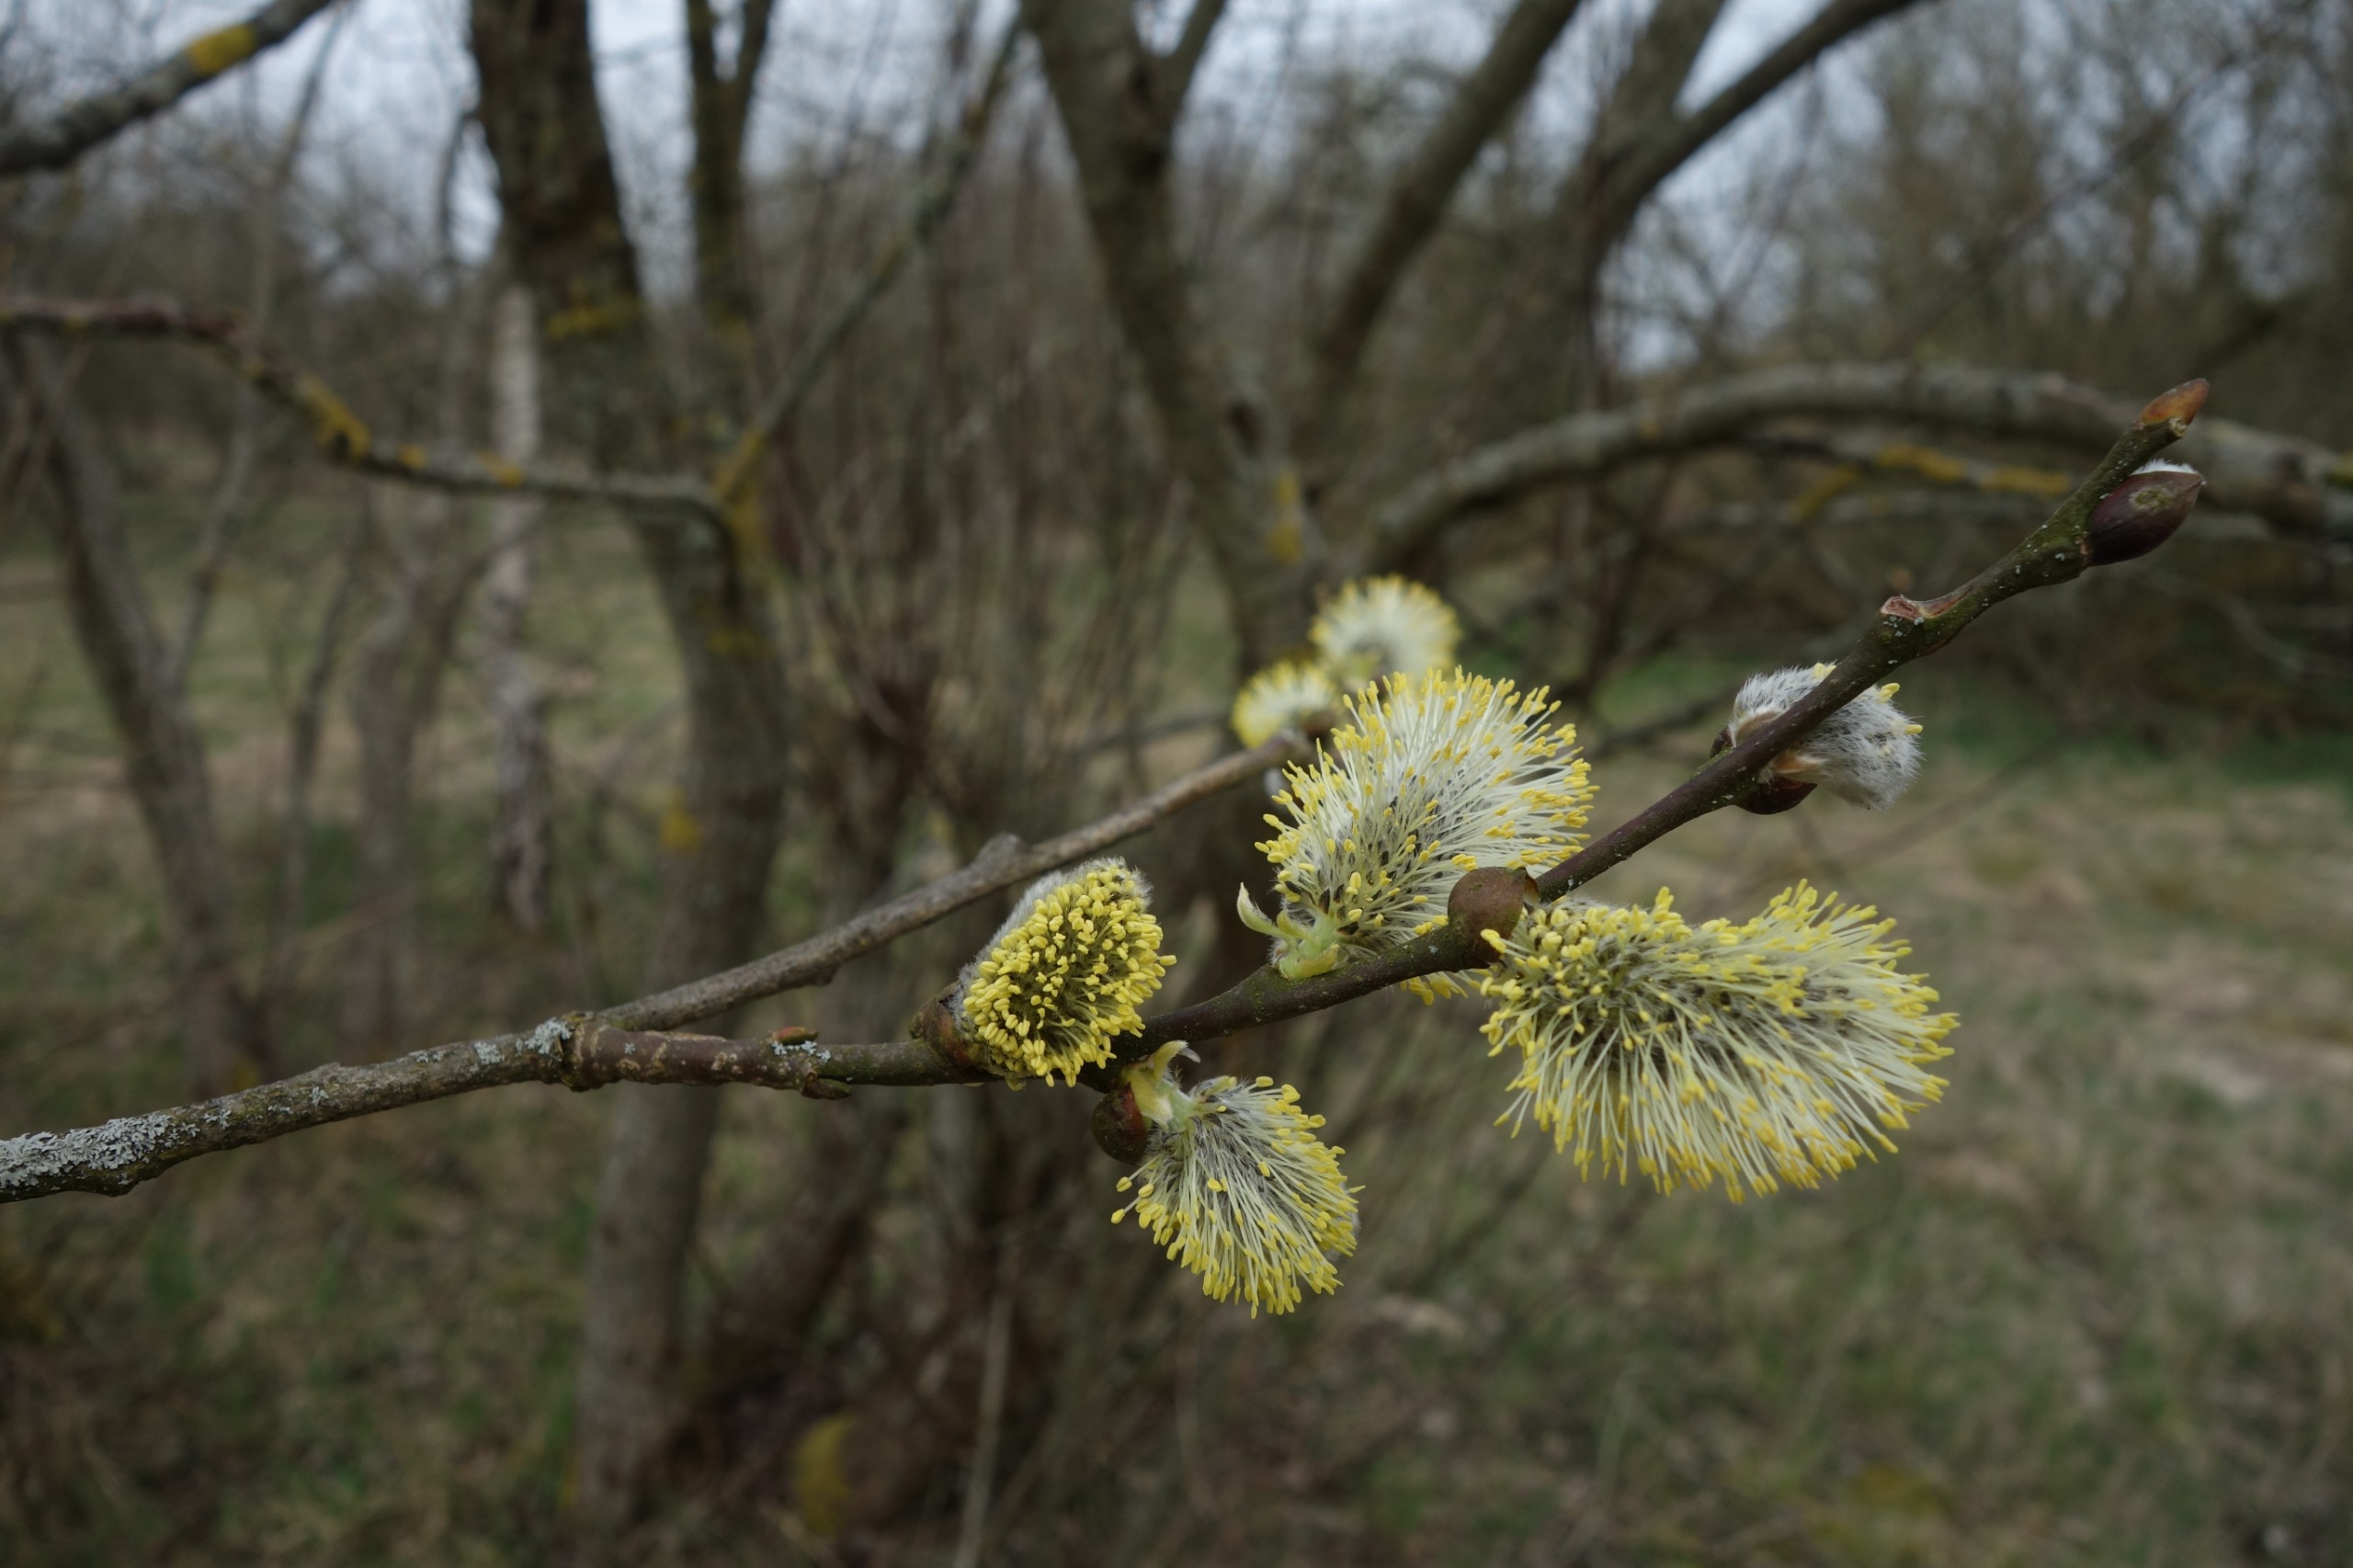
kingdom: Plantae
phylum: Tracheophyta
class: Magnoliopsida
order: Malpighiales
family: Salicaceae
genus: Salix
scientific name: Salix caprea
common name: Selje-pil
